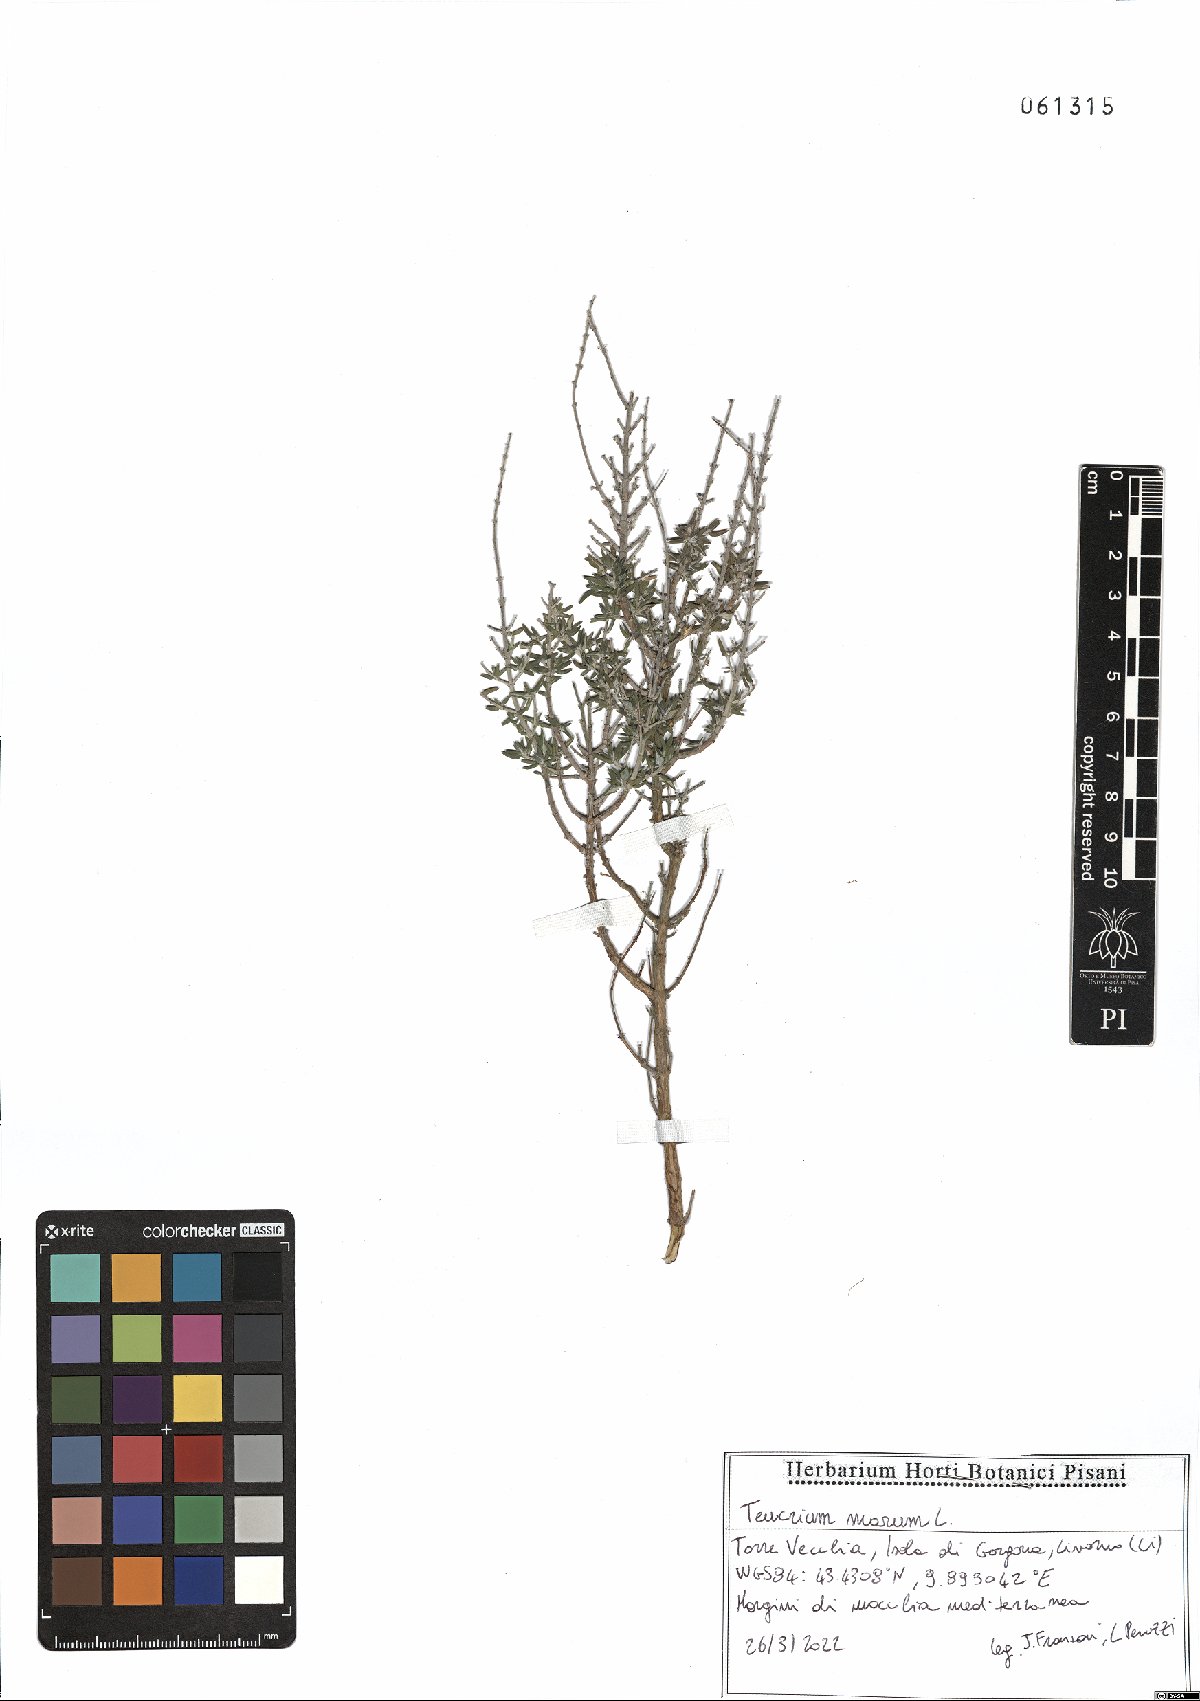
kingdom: Plantae
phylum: Tracheophyta
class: Magnoliopsida
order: Lamiales
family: Lamiaceae
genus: Teucrium
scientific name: Teucrium marum
